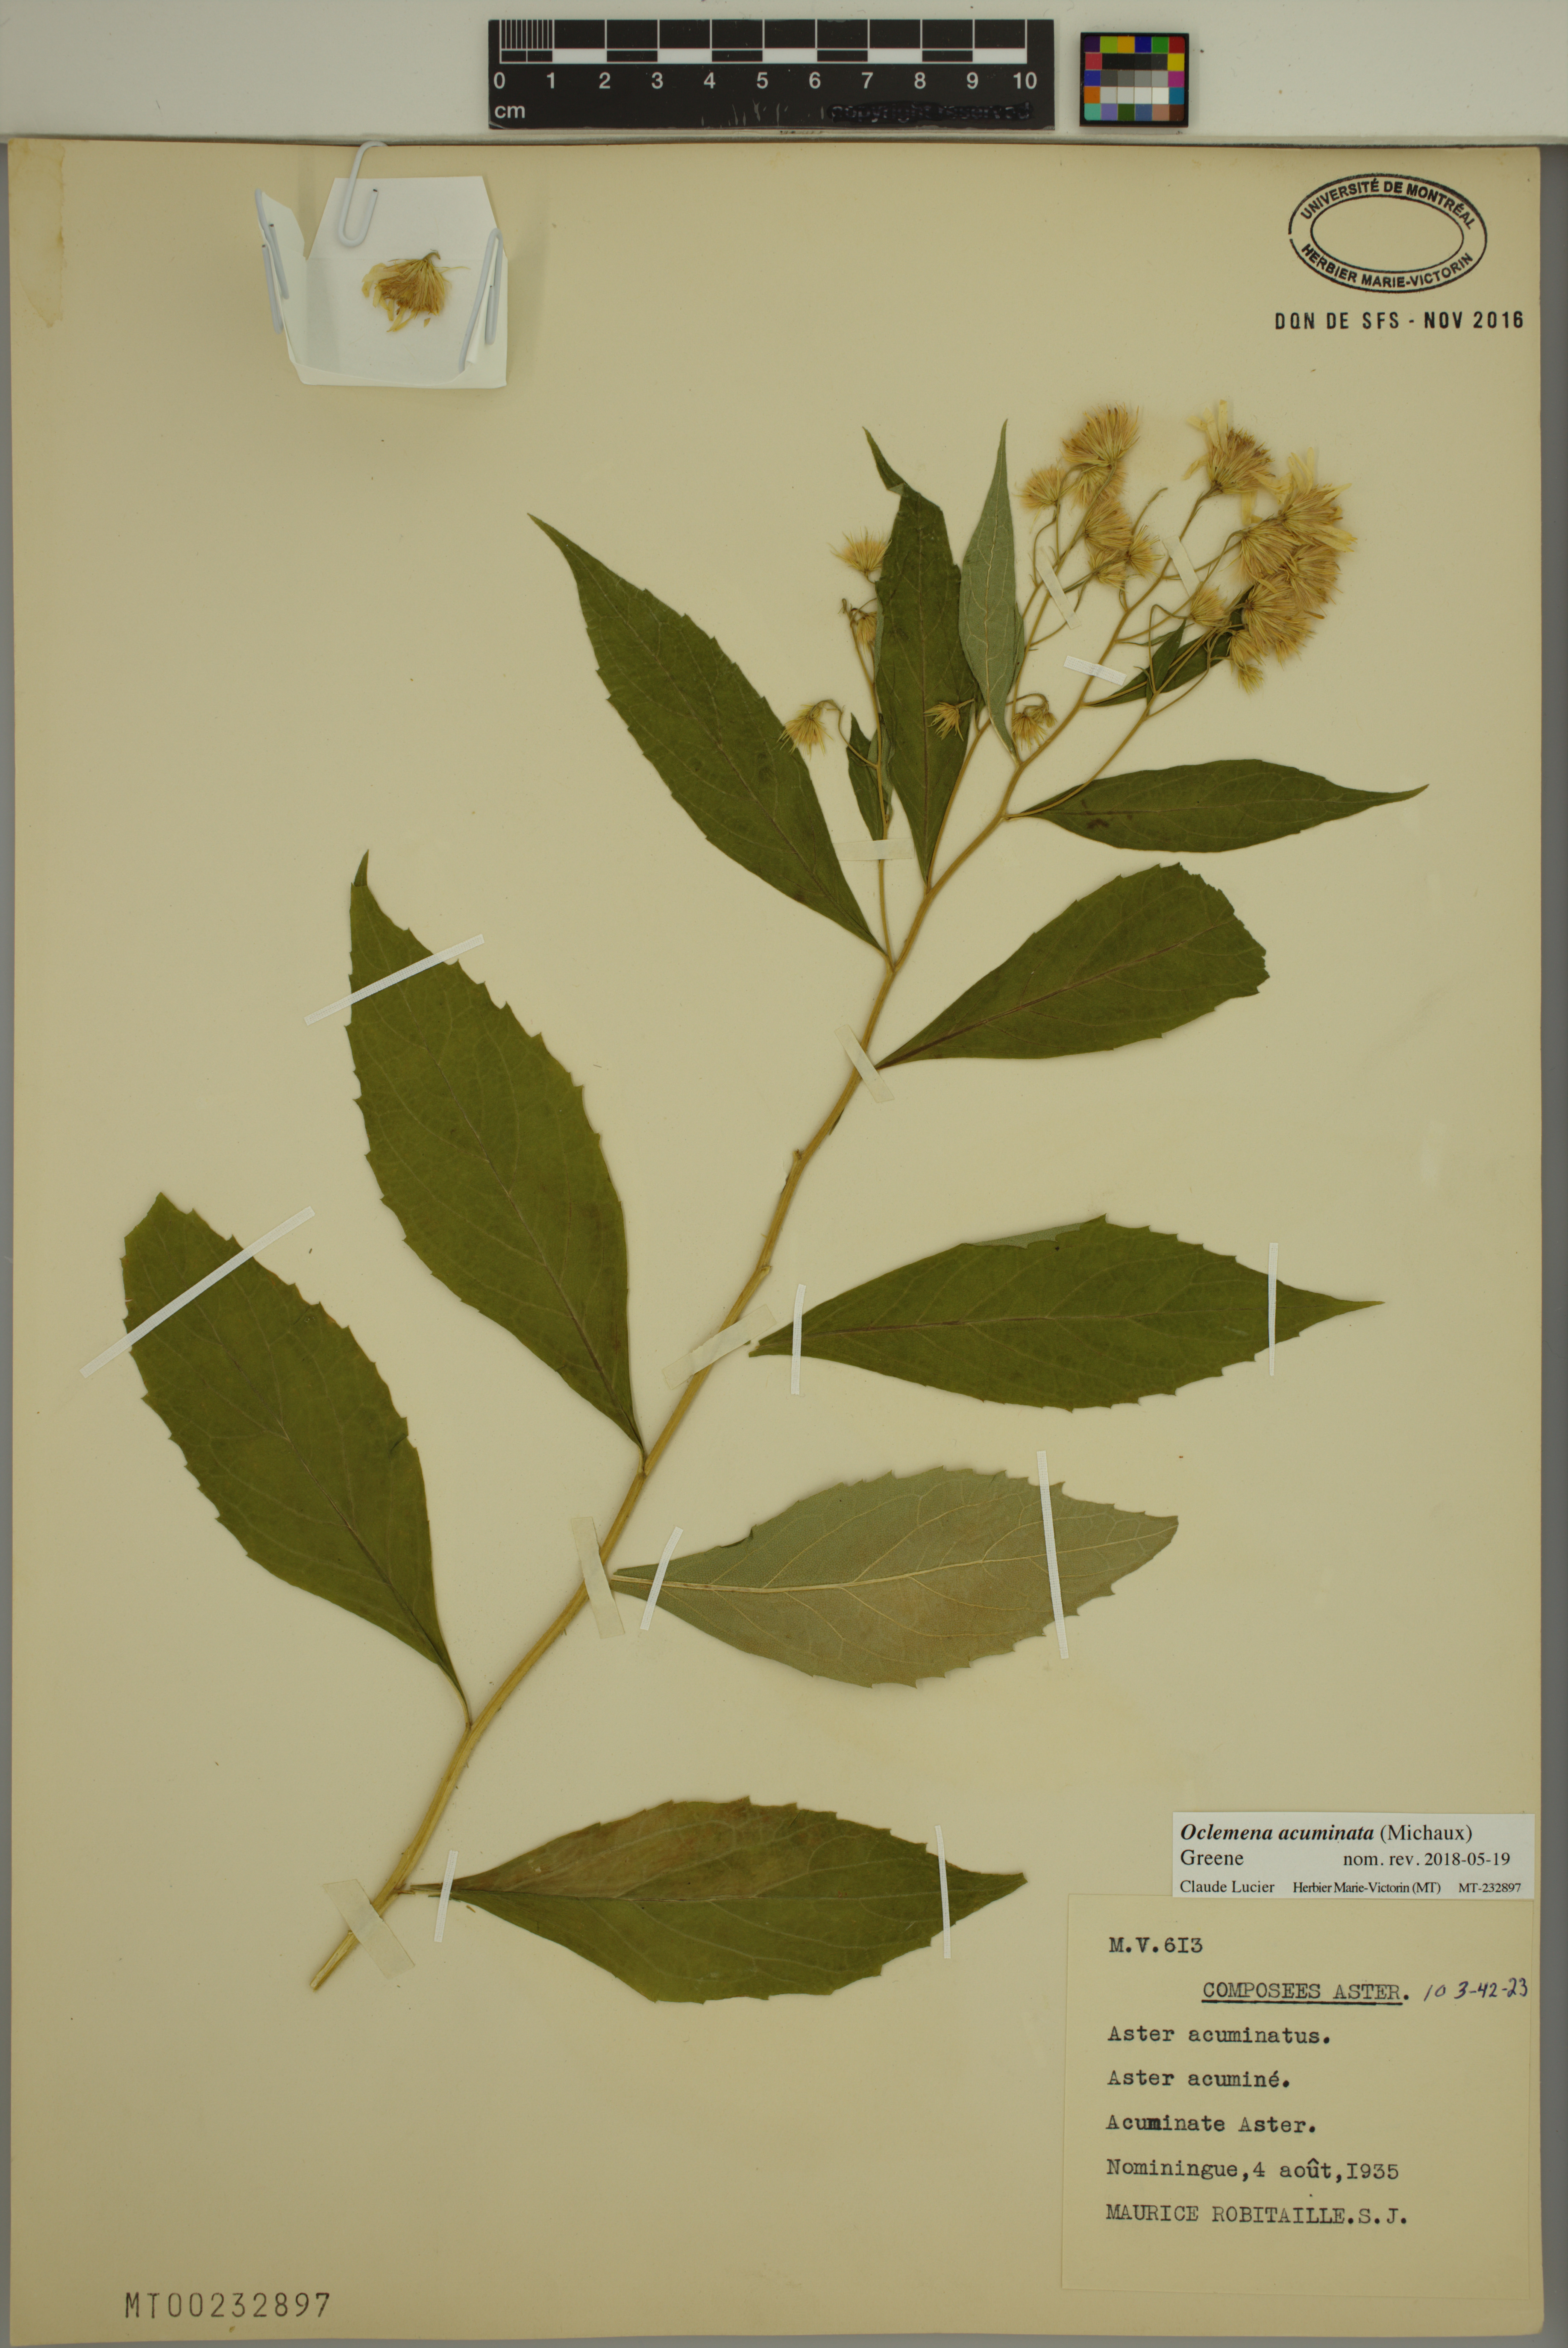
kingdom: Plantae
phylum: Tracheophyta
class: Magnoliopsida
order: Asterales
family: Asteraceae
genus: Oclemena
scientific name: Oclemena acuminata
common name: Mountain aster
